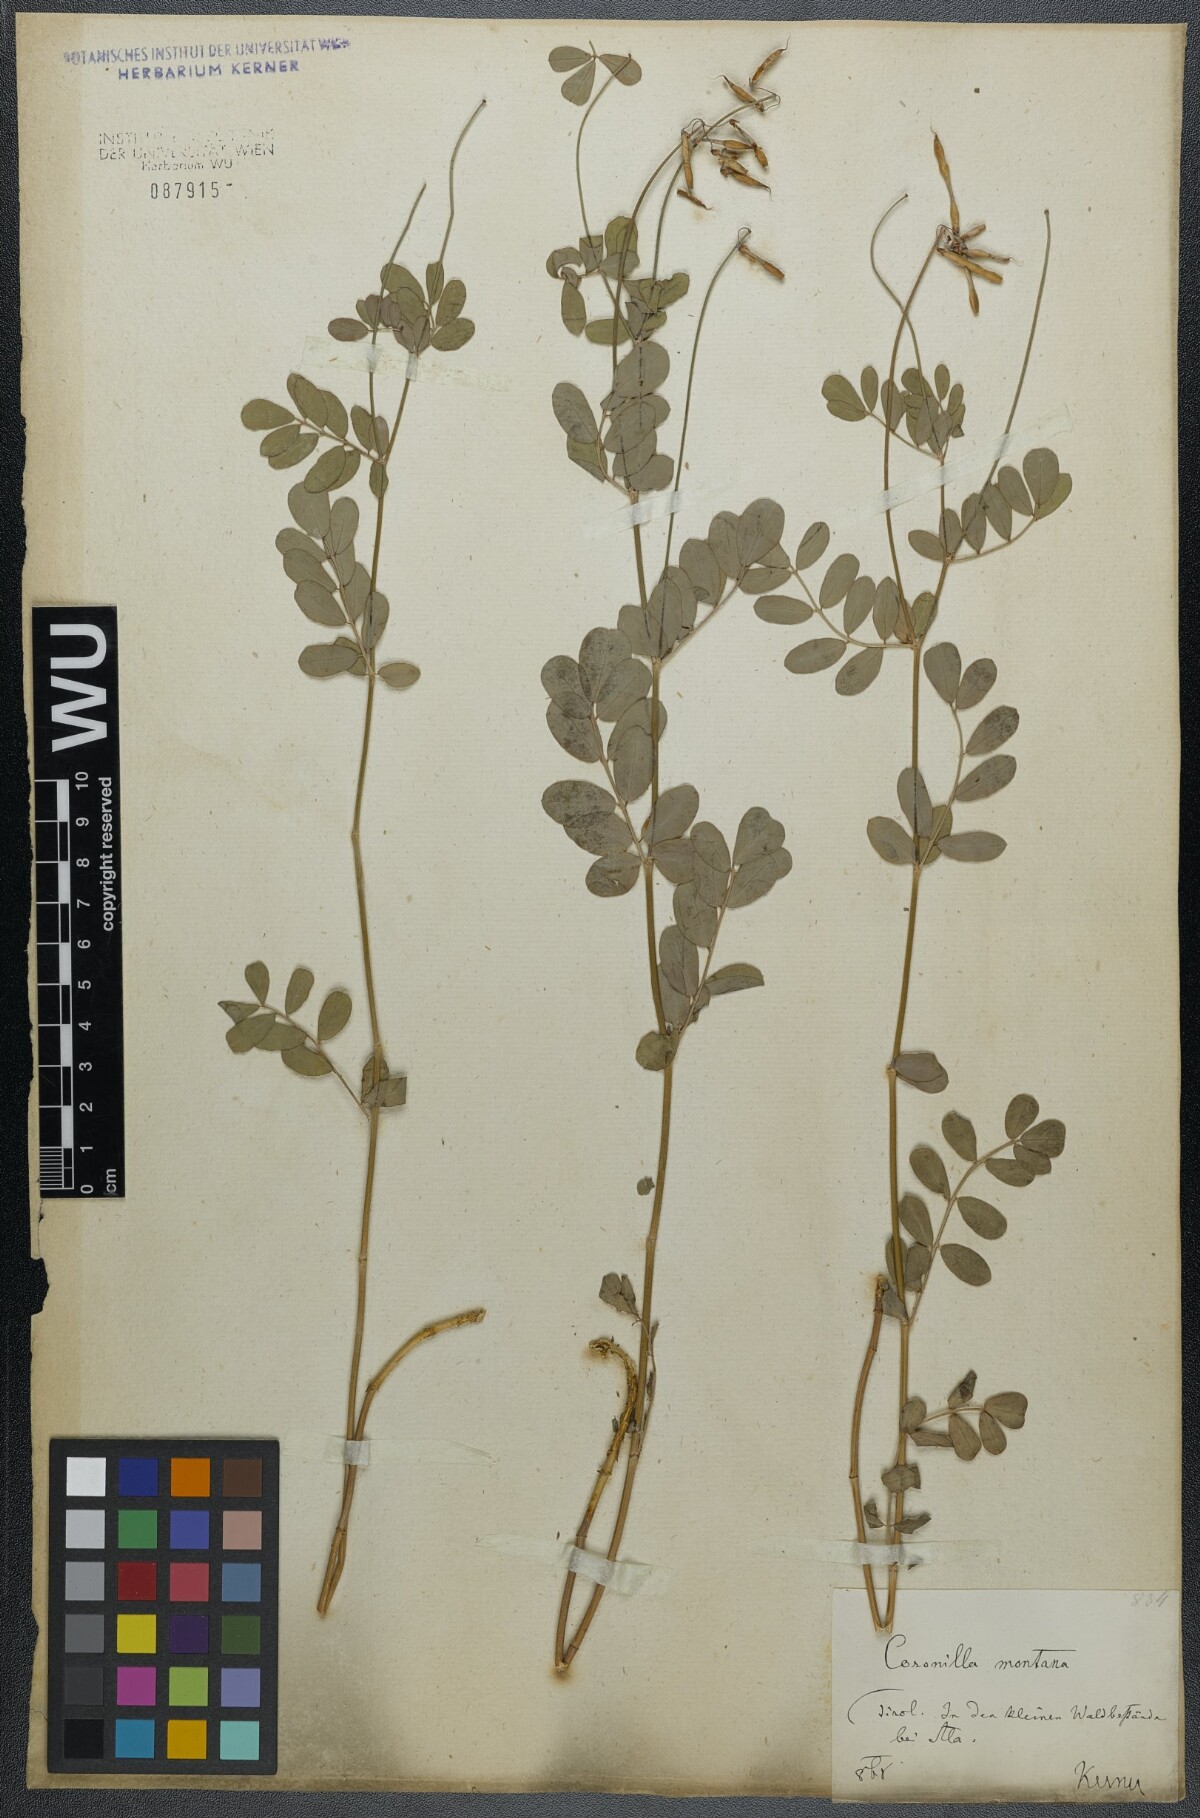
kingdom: Plantae
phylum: Tracheophyta
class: Magnoliopsida
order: Fabales
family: Fabaceae
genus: Coronilla
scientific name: Coronilla coronata
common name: Scorpion-vetch
